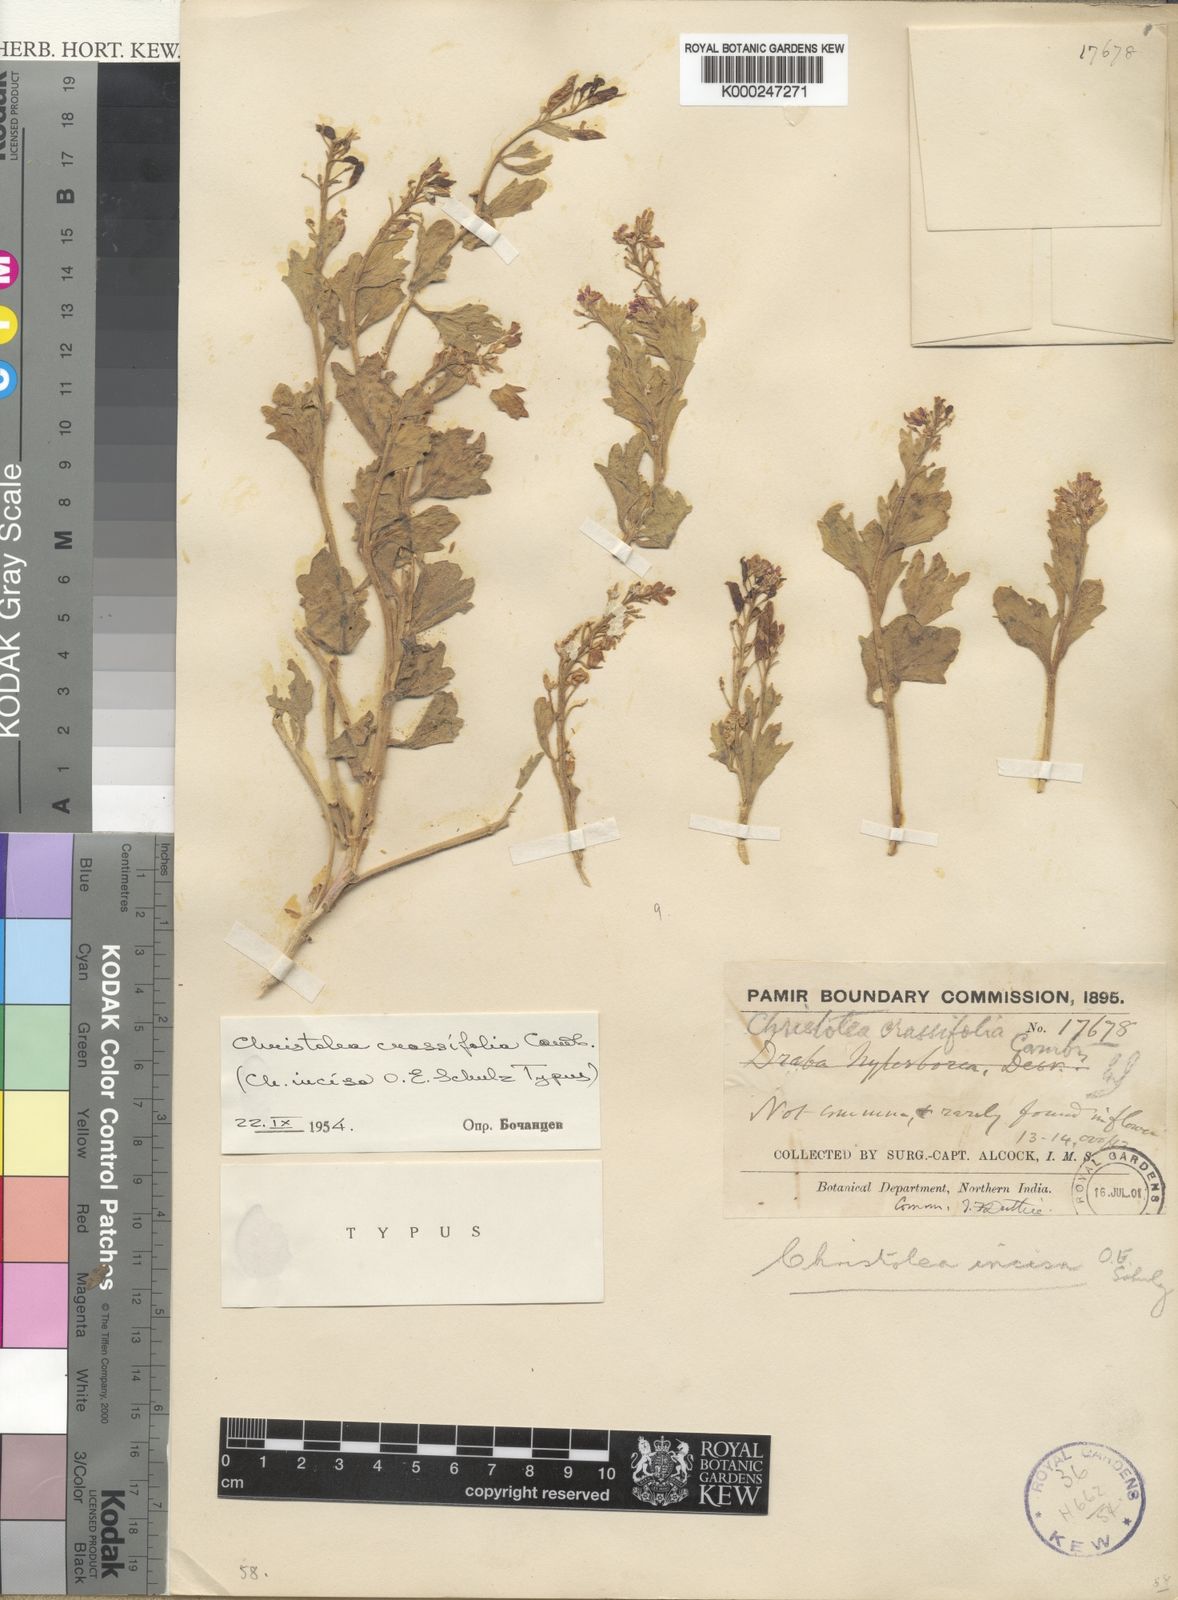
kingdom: Plantae
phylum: Tracheophyta
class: Magnoliopsida
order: Brassicales
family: Brassicaceae
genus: Christolea
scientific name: Christolea crassifolia
